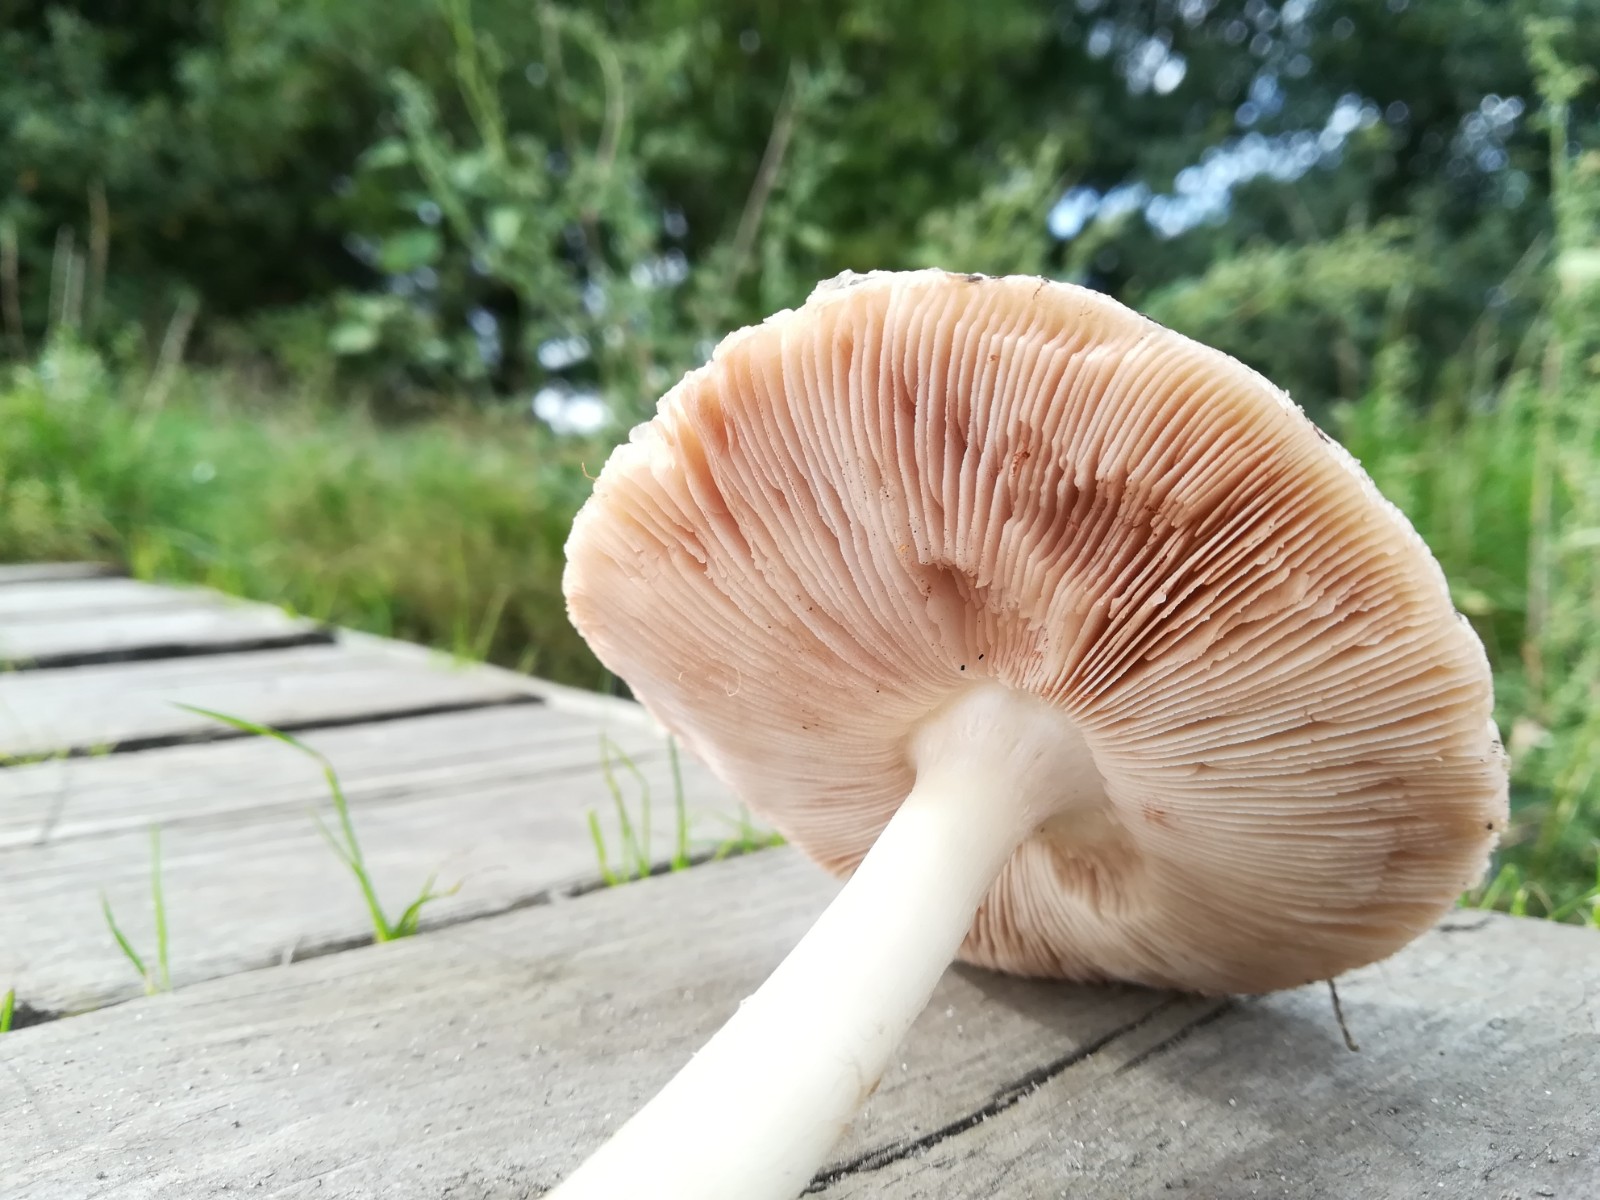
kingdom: Fungi
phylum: Basidiomycota
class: Agaricomycetes
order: Agaricales
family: Pluteaceae
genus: Volvopluteus
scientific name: Volvopluteus gloiocephalus
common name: høj posesvamp
